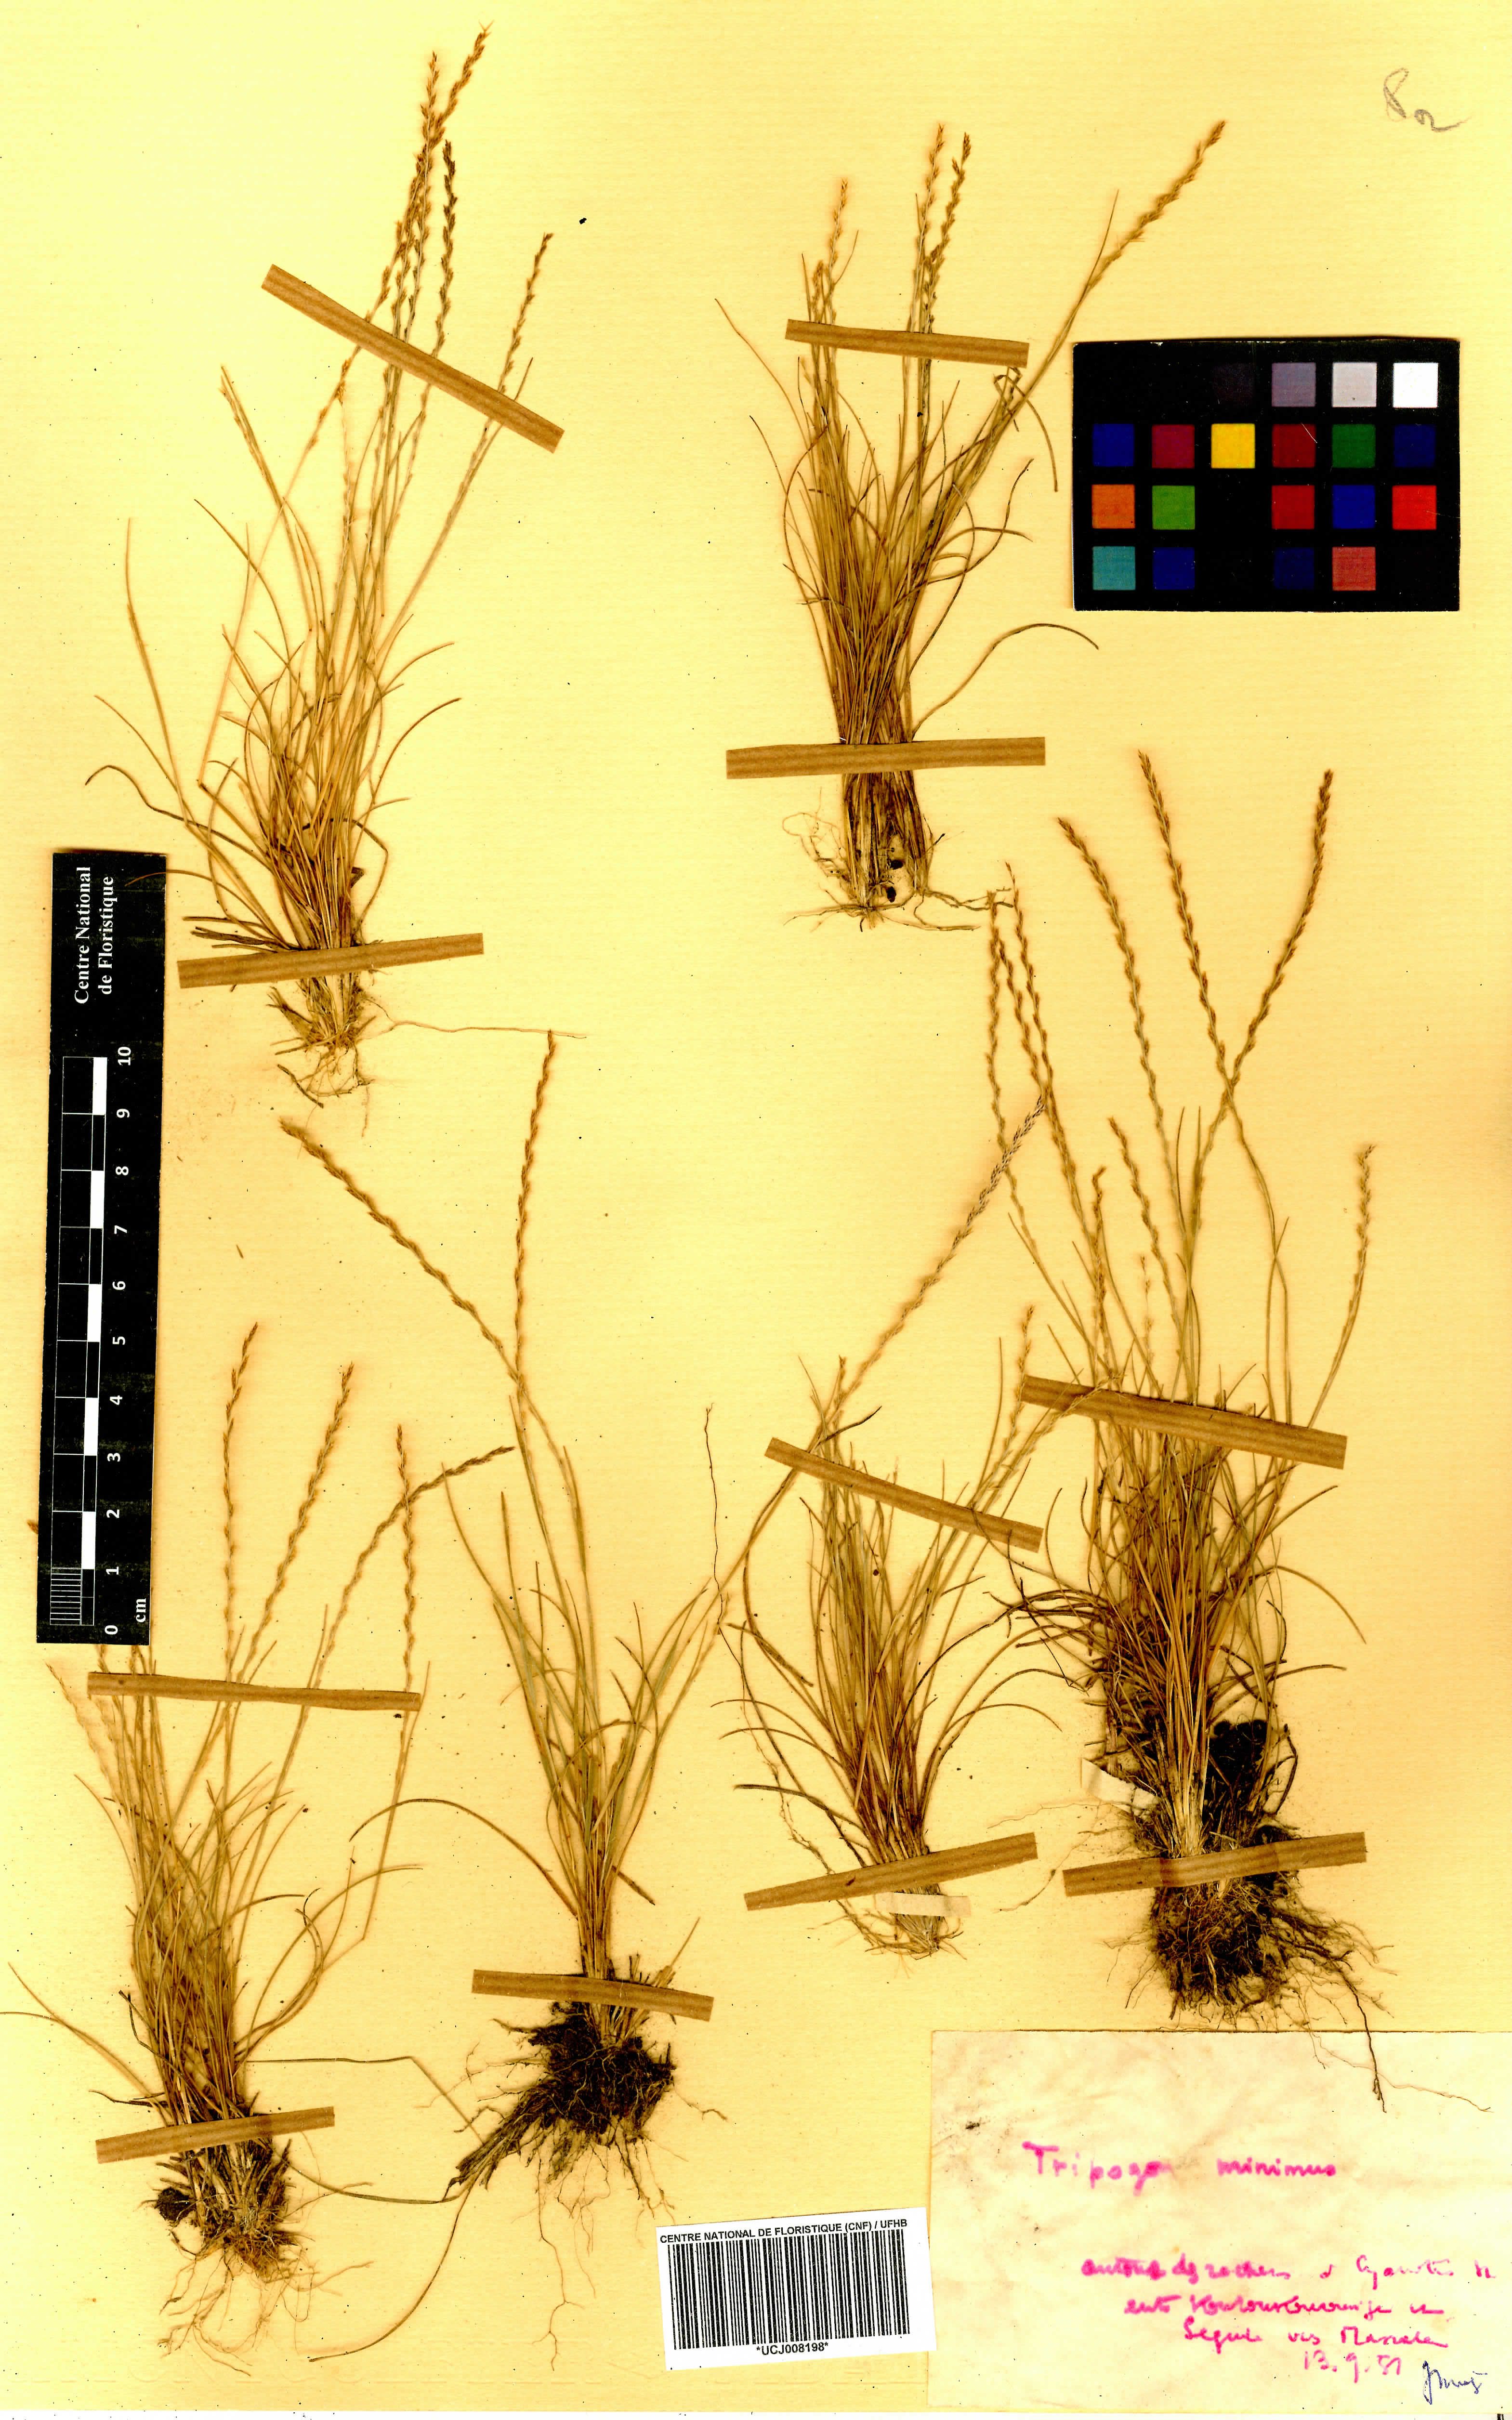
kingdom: Plantae
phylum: Tracheophyta
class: Liliopsida
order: Poales
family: Poaceae
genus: Tripogonella
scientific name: Tripogonella minima
